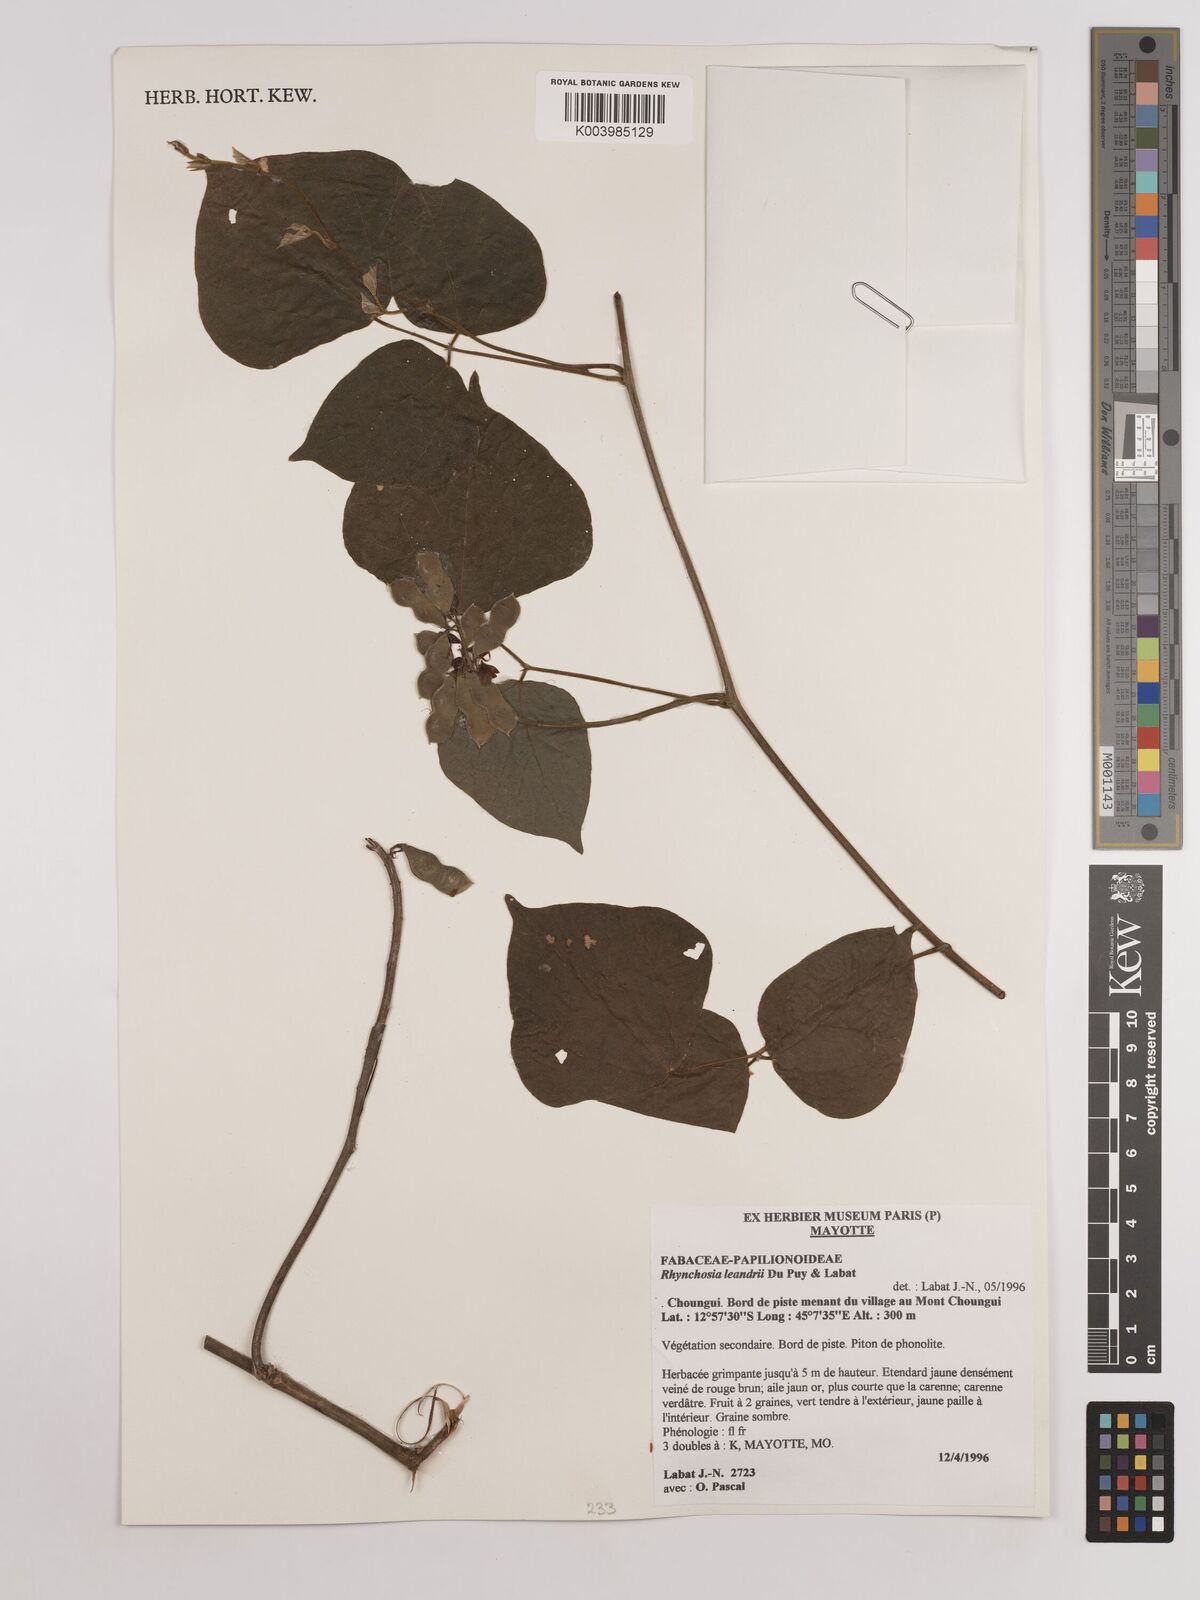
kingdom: Plantae
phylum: Tracheophyta
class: Magnoliopsida
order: Fabales
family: Fabaceae
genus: Rhynchosia
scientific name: Rhynchosia leandrii
